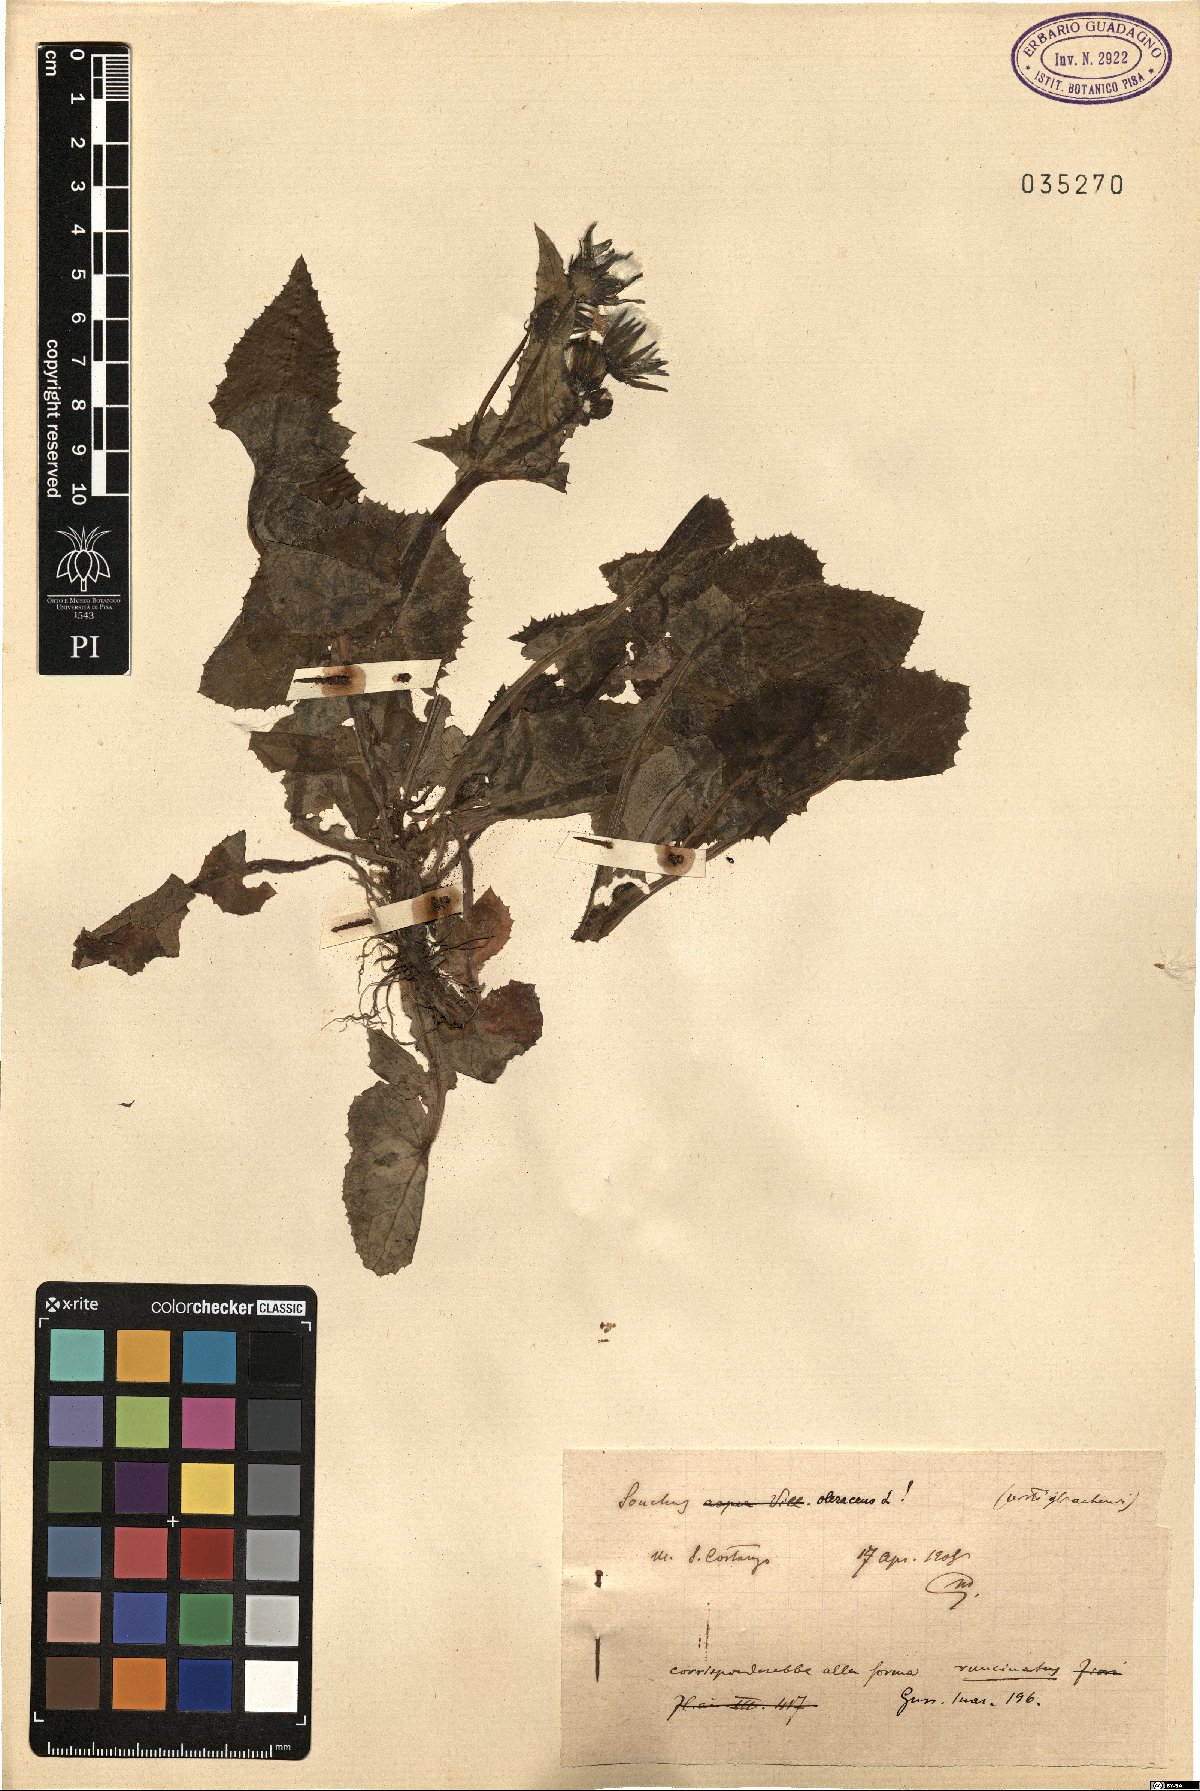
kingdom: Plantae
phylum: Tracheophyta
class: Magnoliopsida
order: Asterales
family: Asteraceae
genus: Sonchus
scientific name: Sonchus oleraceus
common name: Common sowthistle
